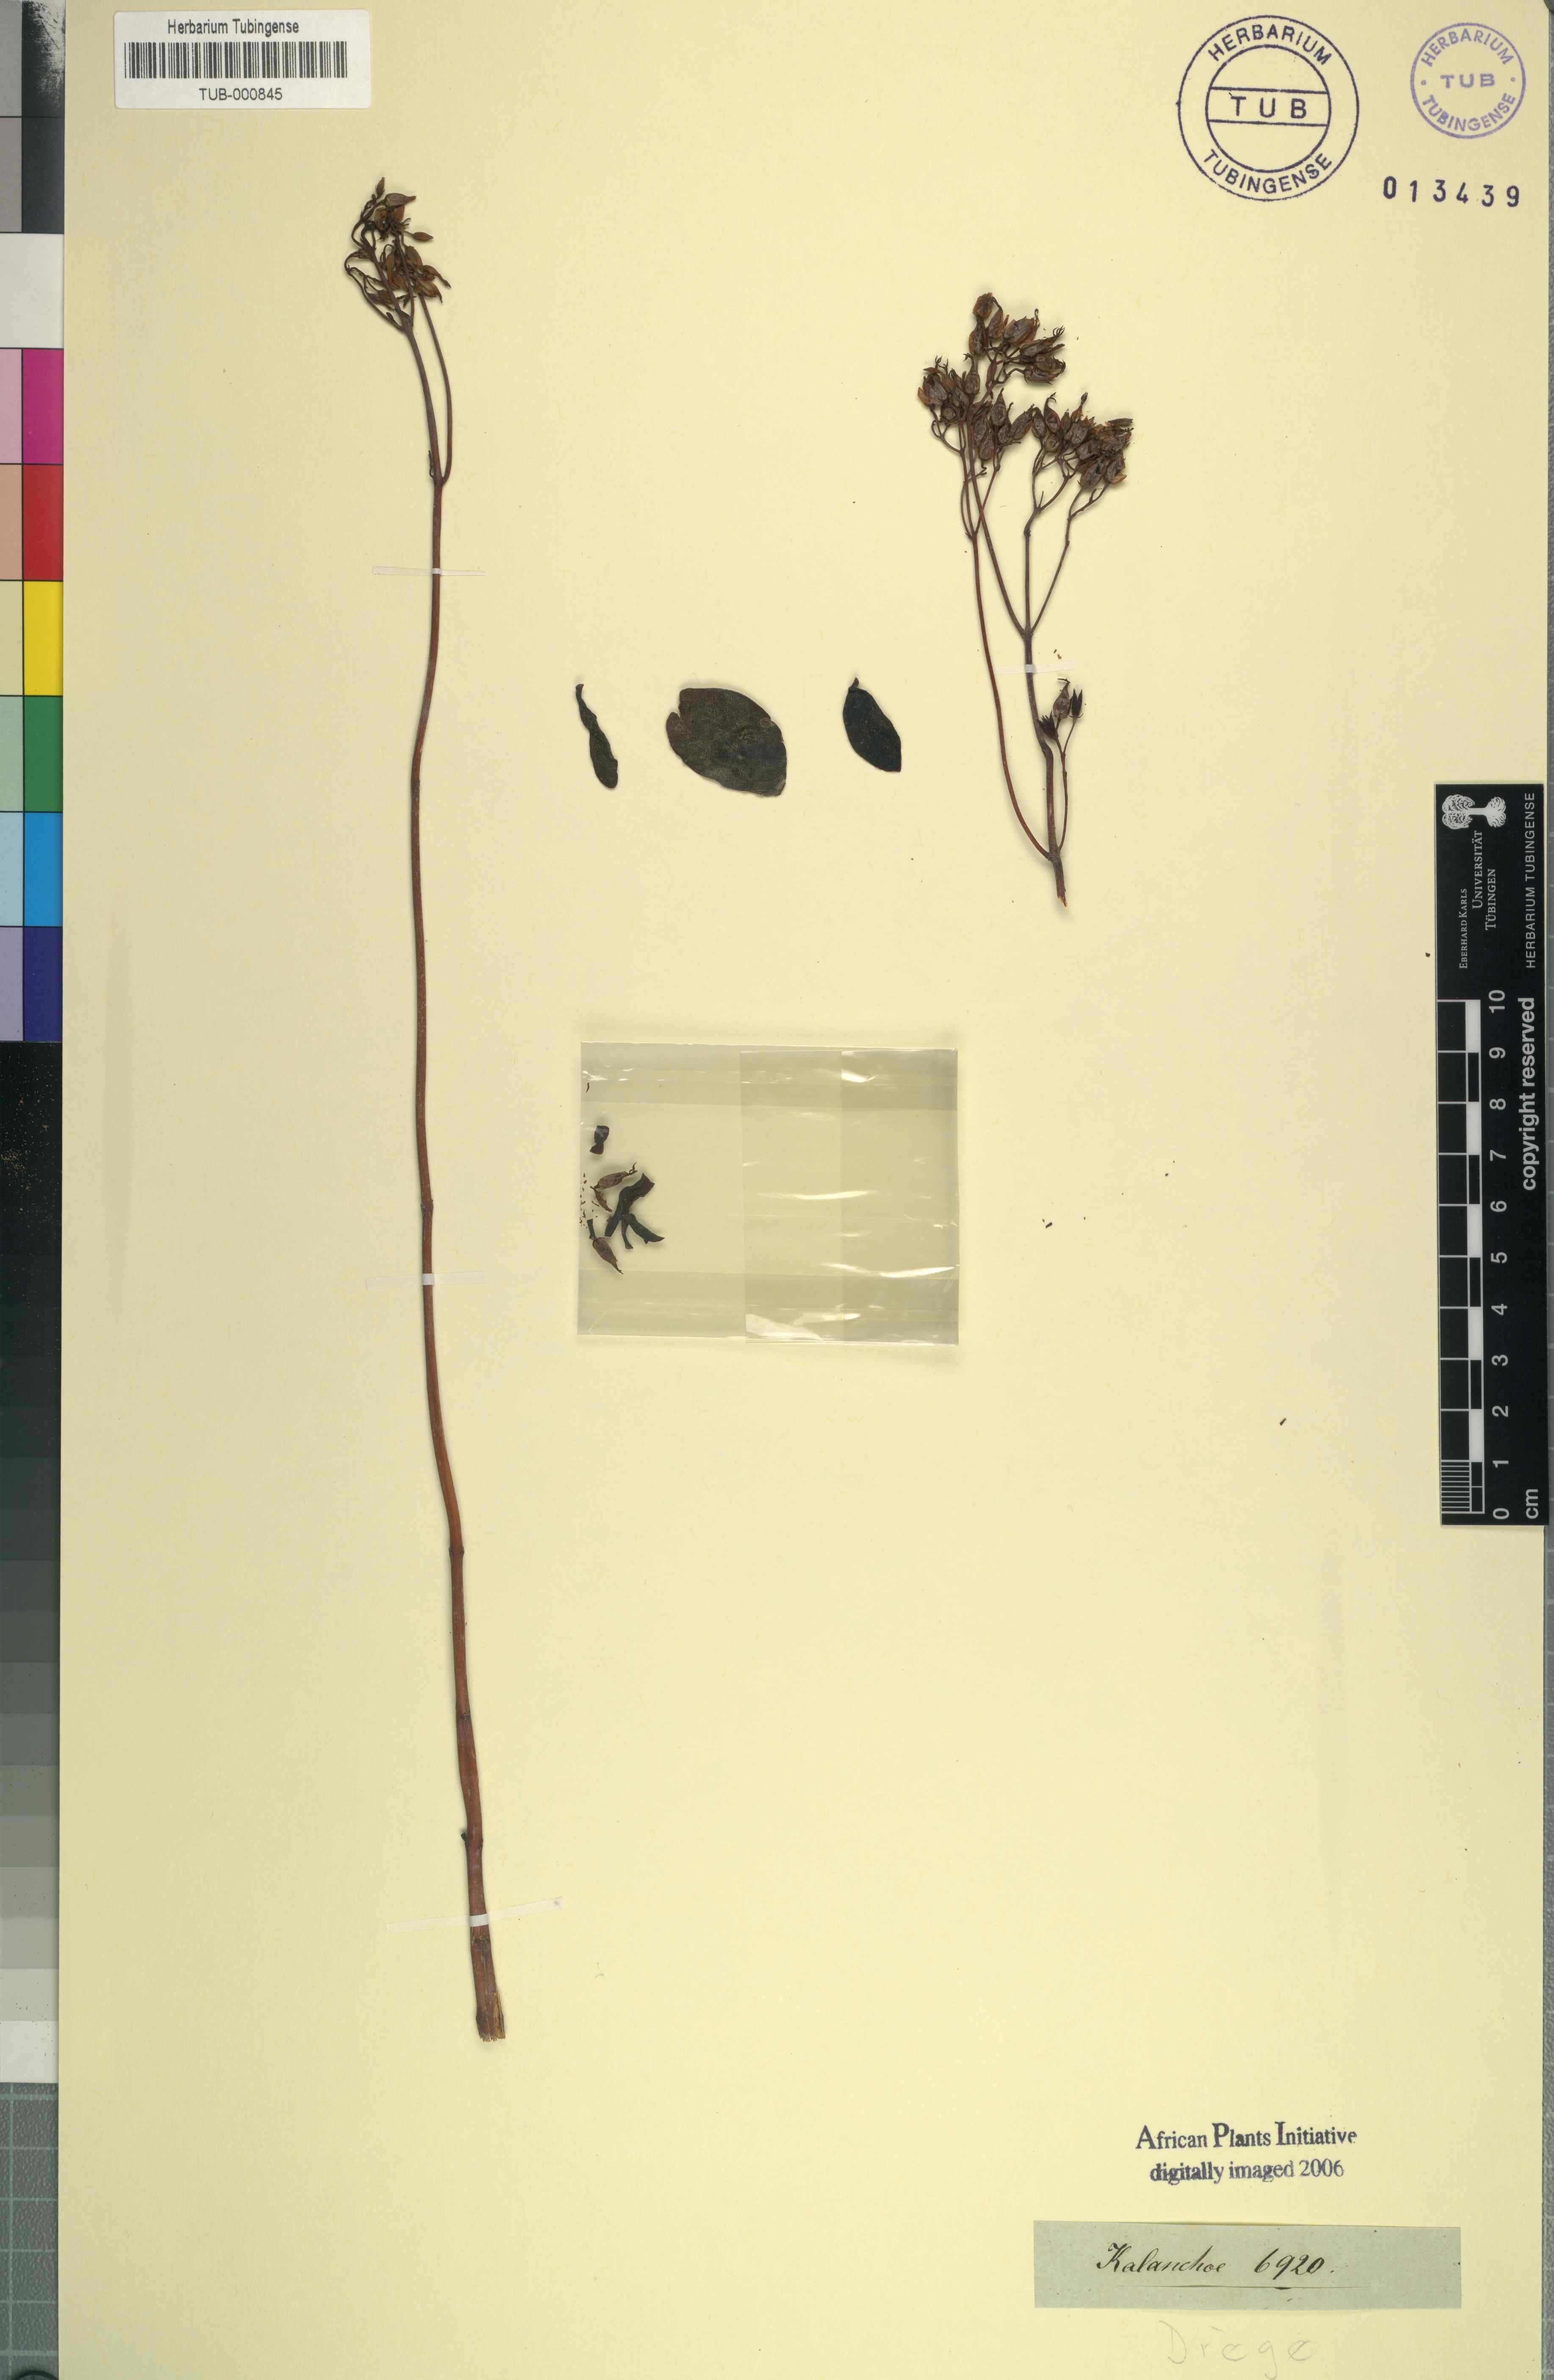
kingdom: Plantae
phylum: Tracheophyta
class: Magnoliopsida
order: Saxifragales
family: Crassulaceae
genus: Kalanchoe
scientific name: Kalanchoe
